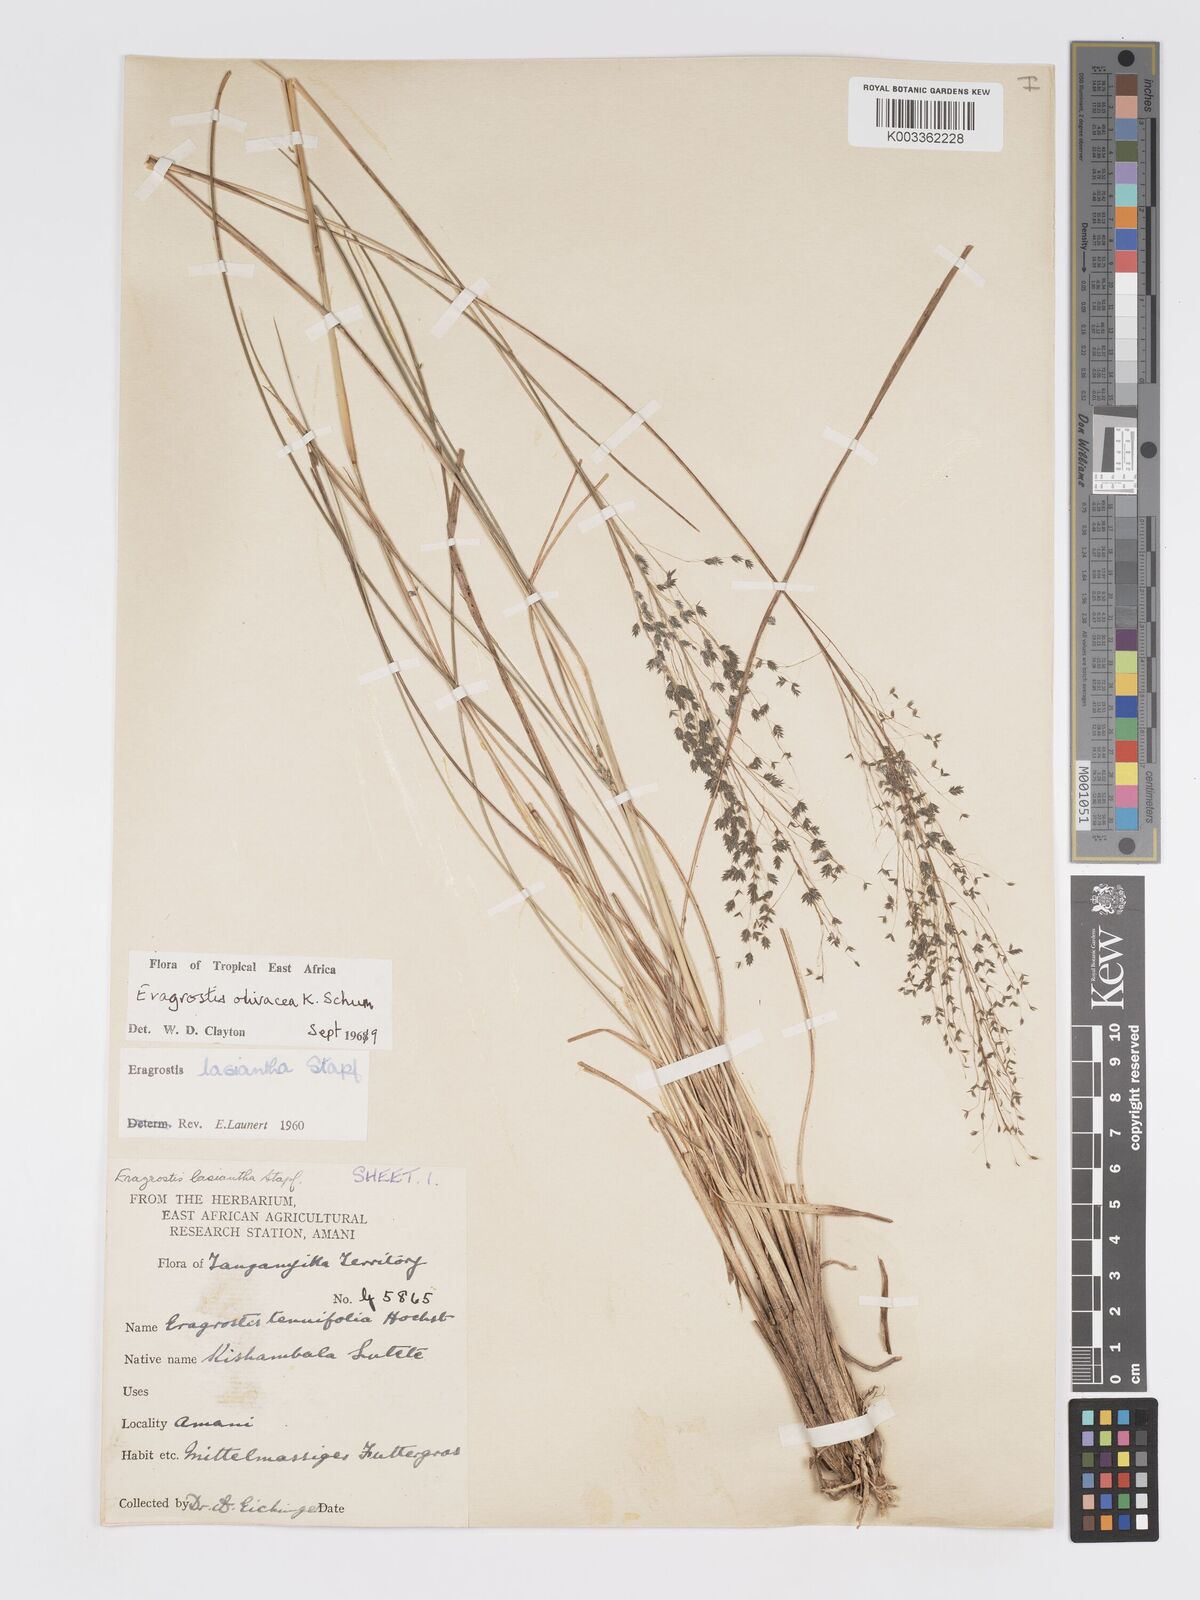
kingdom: Plantae
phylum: Tracheophyta
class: Liliopsida
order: Poales
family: Poaceae
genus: Eragrostis
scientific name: Eragrostis olivacea
